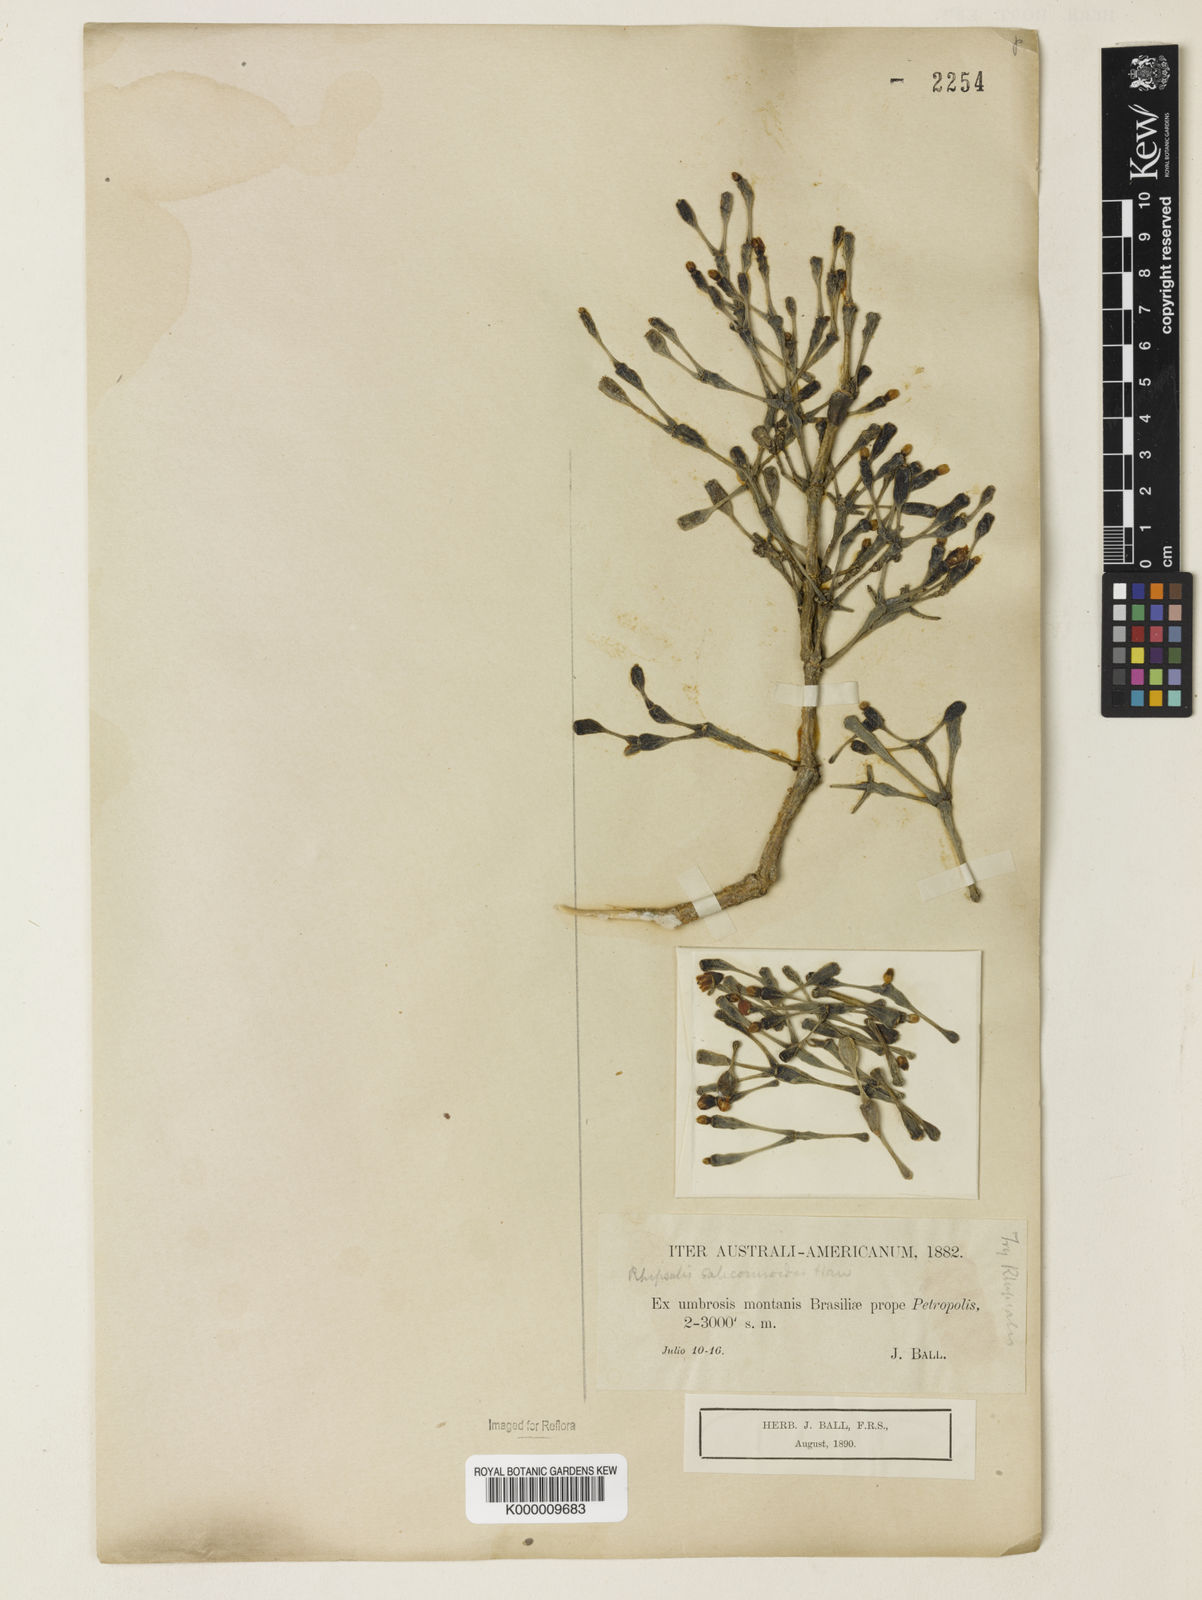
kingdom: Plantae
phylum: Tracheophyta
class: Magnoliopsida
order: Caryophyllales
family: Cactaceae
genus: Hatiora
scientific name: Hatiora
